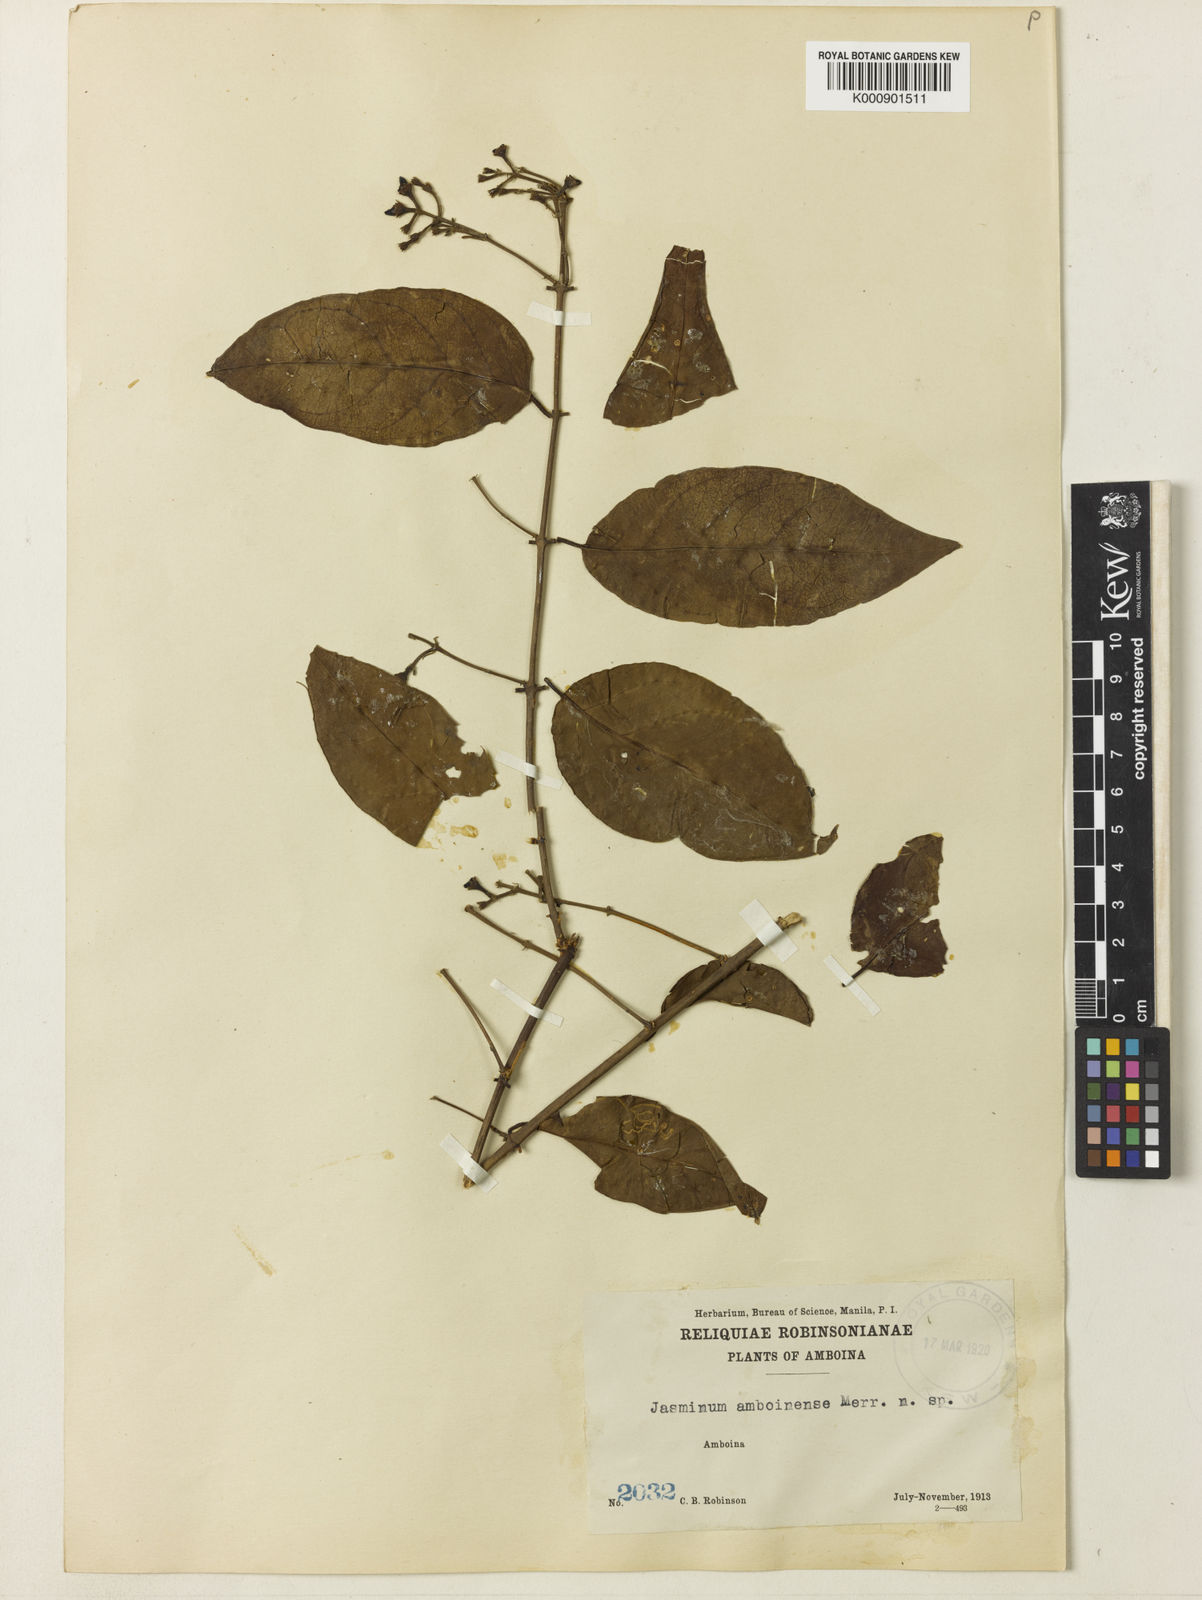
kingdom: Plantae
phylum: Tracheophyta
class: Magnoliopsida
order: Lamiales
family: Oleaceae
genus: Jasminum
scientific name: Jasminum zippelianum
